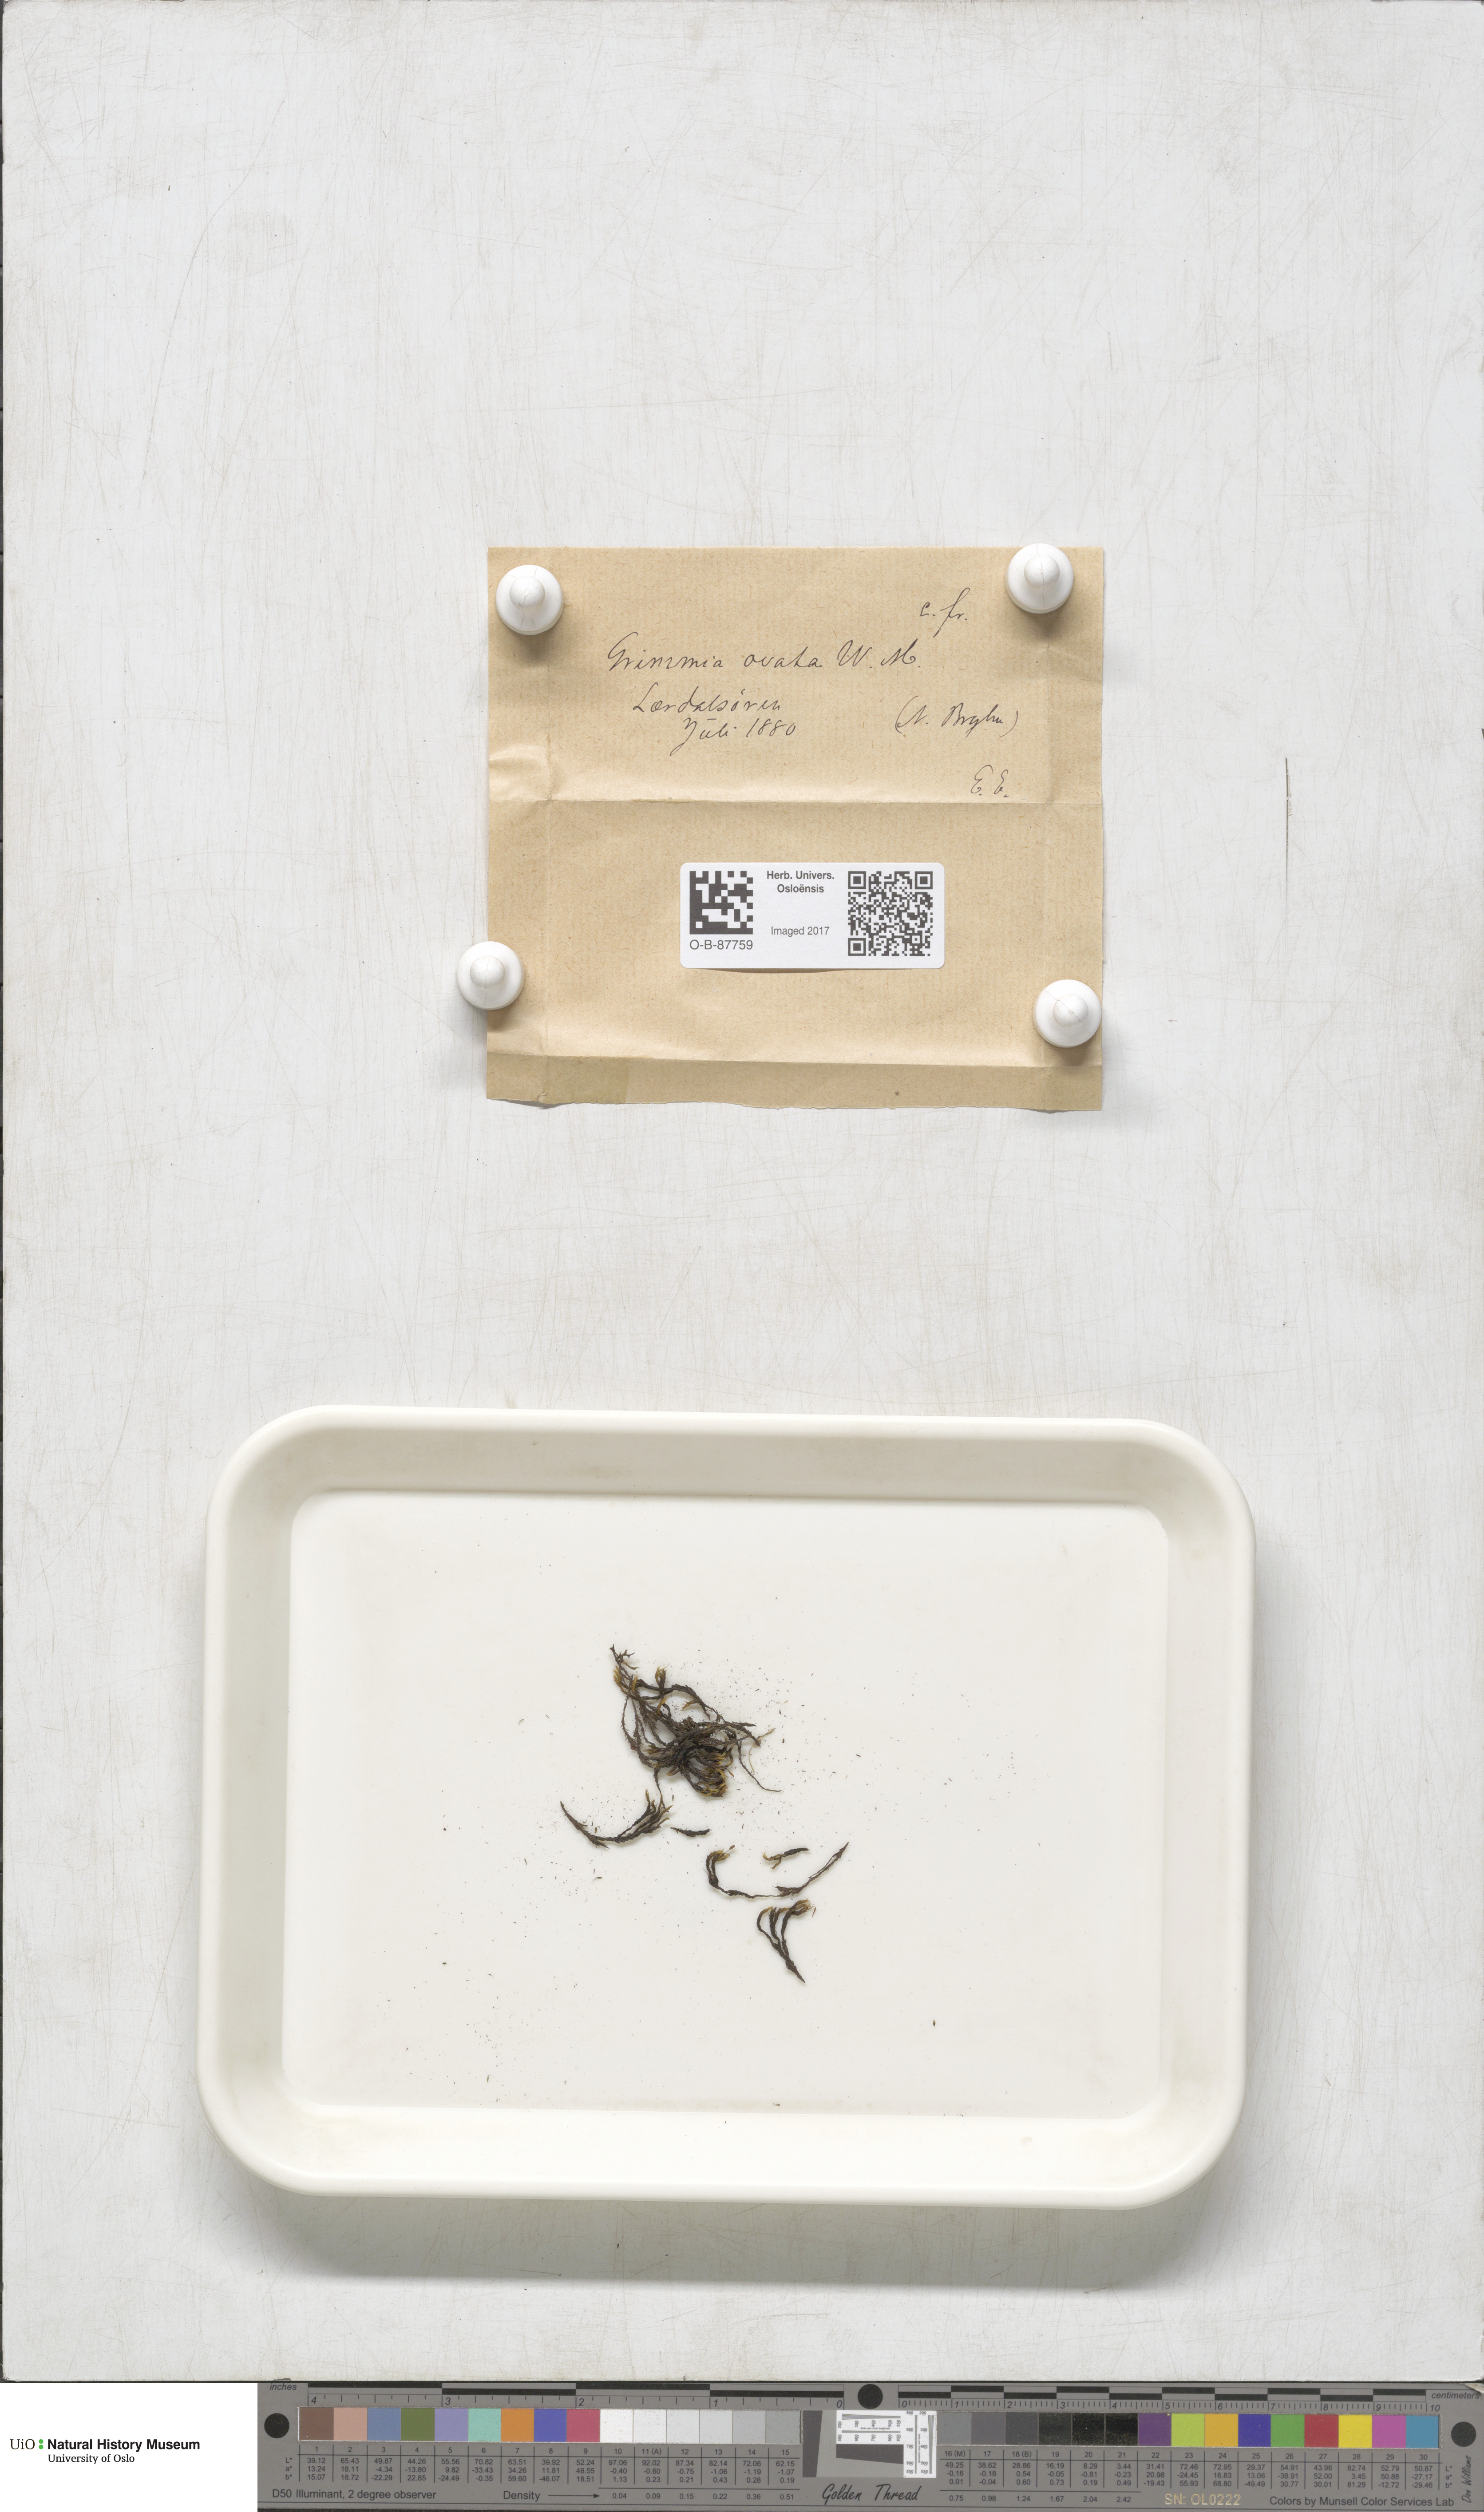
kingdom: Plantae
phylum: Bryophyta
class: Bryopsida
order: Grimmiales
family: Grimmiaceae
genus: Grimmia
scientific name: Grimmia ovalis
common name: Oval grimmia
